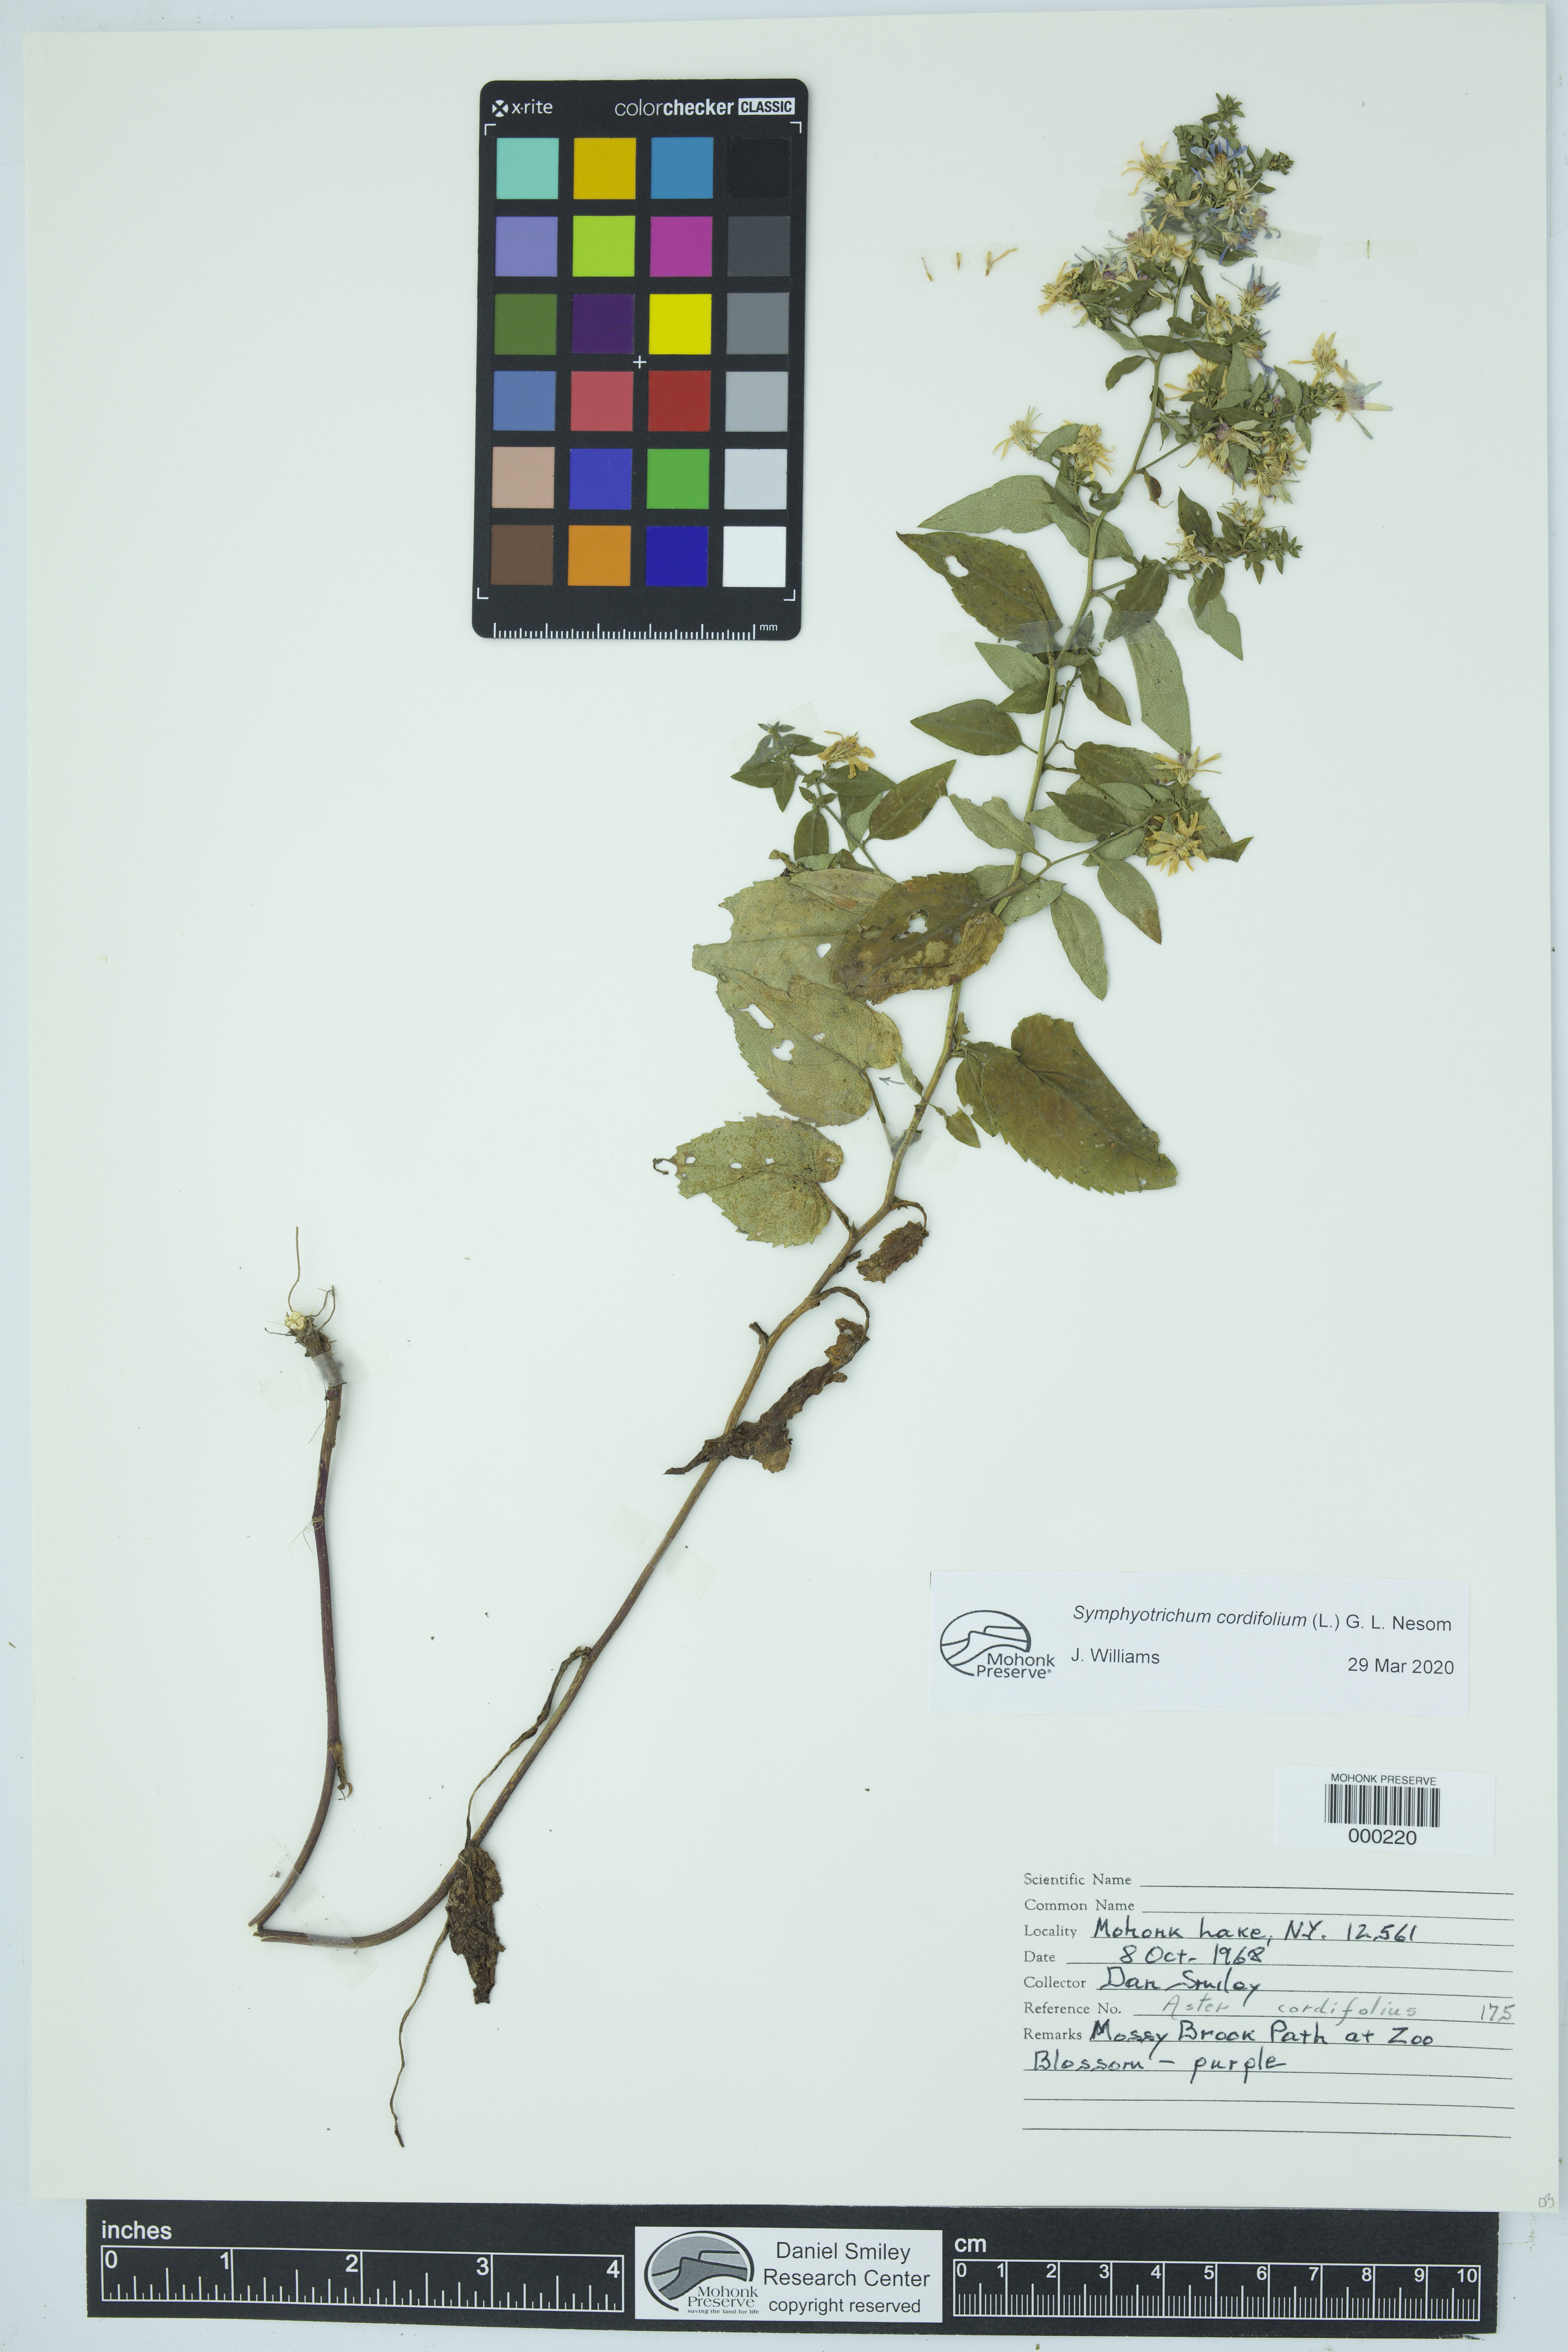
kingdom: Plantae
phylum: Tracheophyta
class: Magnoliopsida
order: Asterales
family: Asteraceae
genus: Symphyotrichum
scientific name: Symphyotrichum cordifolium
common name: Beeweed
